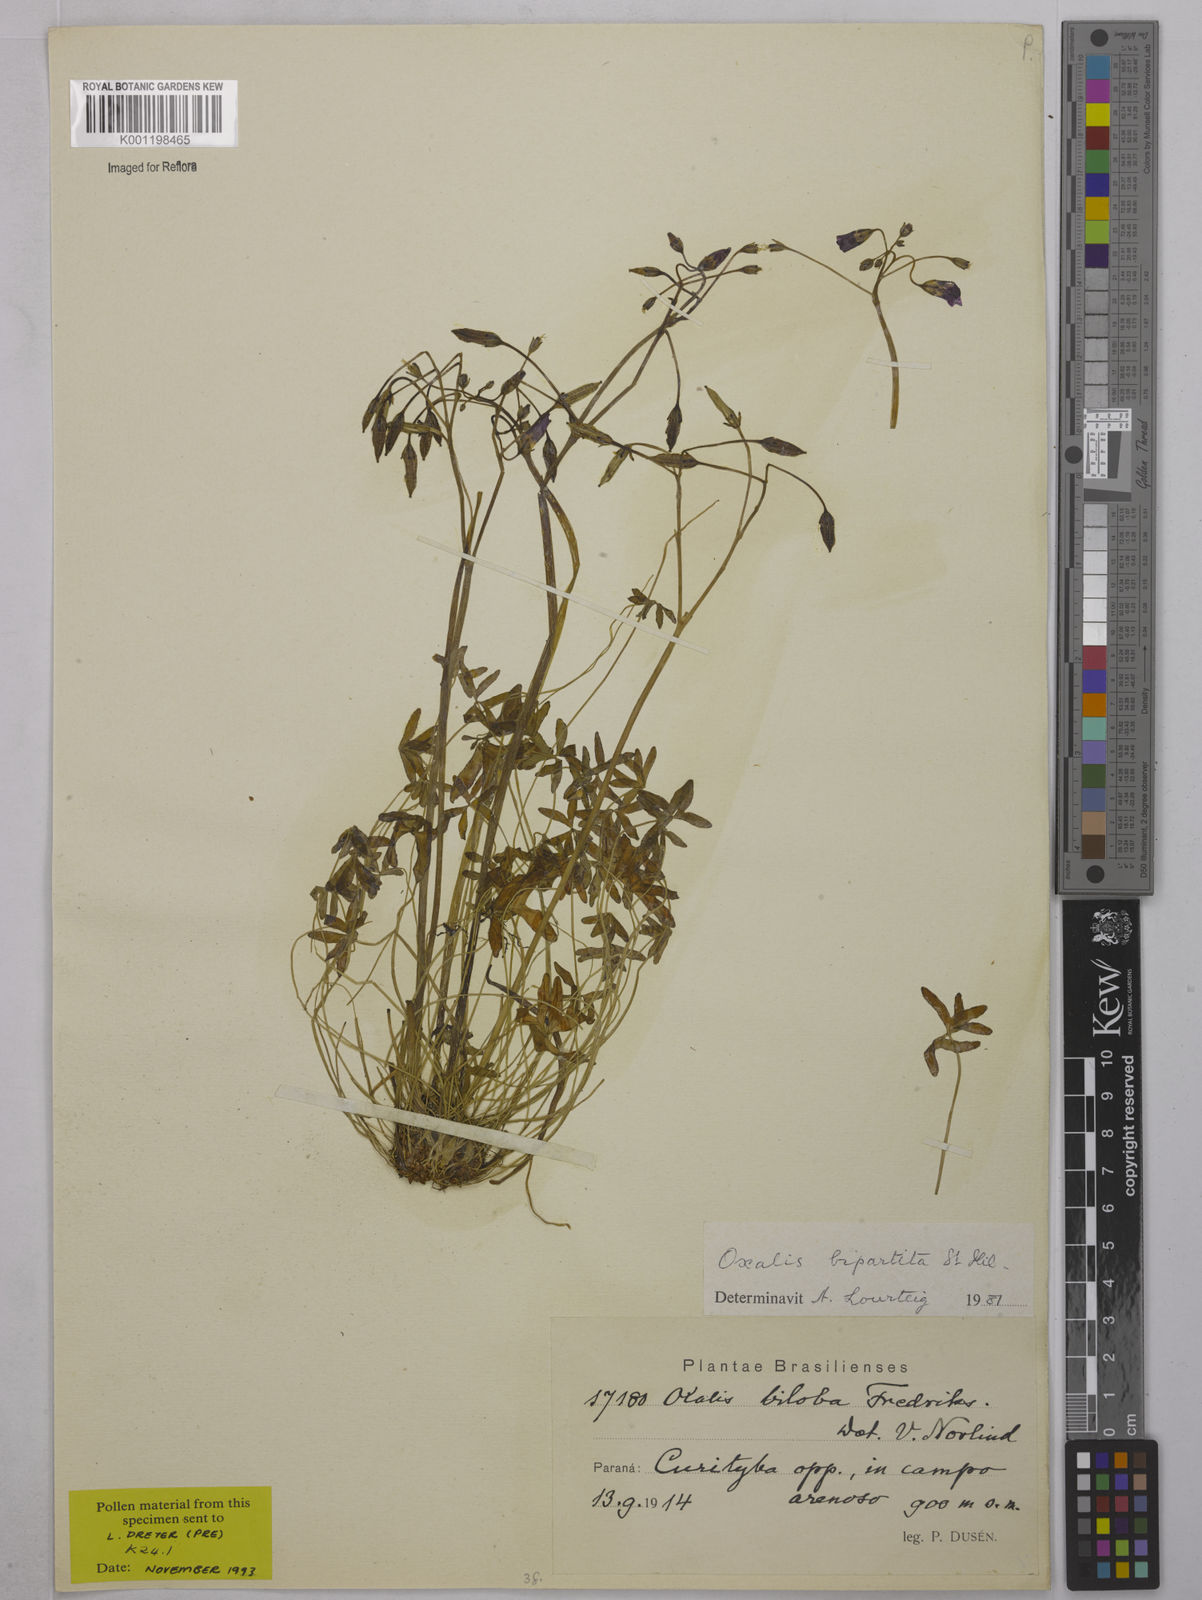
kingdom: Plantae
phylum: Tracheophyta
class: Magnoliopsida
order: Oxalidales
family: Oxalidaceae
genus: Oxalis
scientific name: Oxalis bipartita
